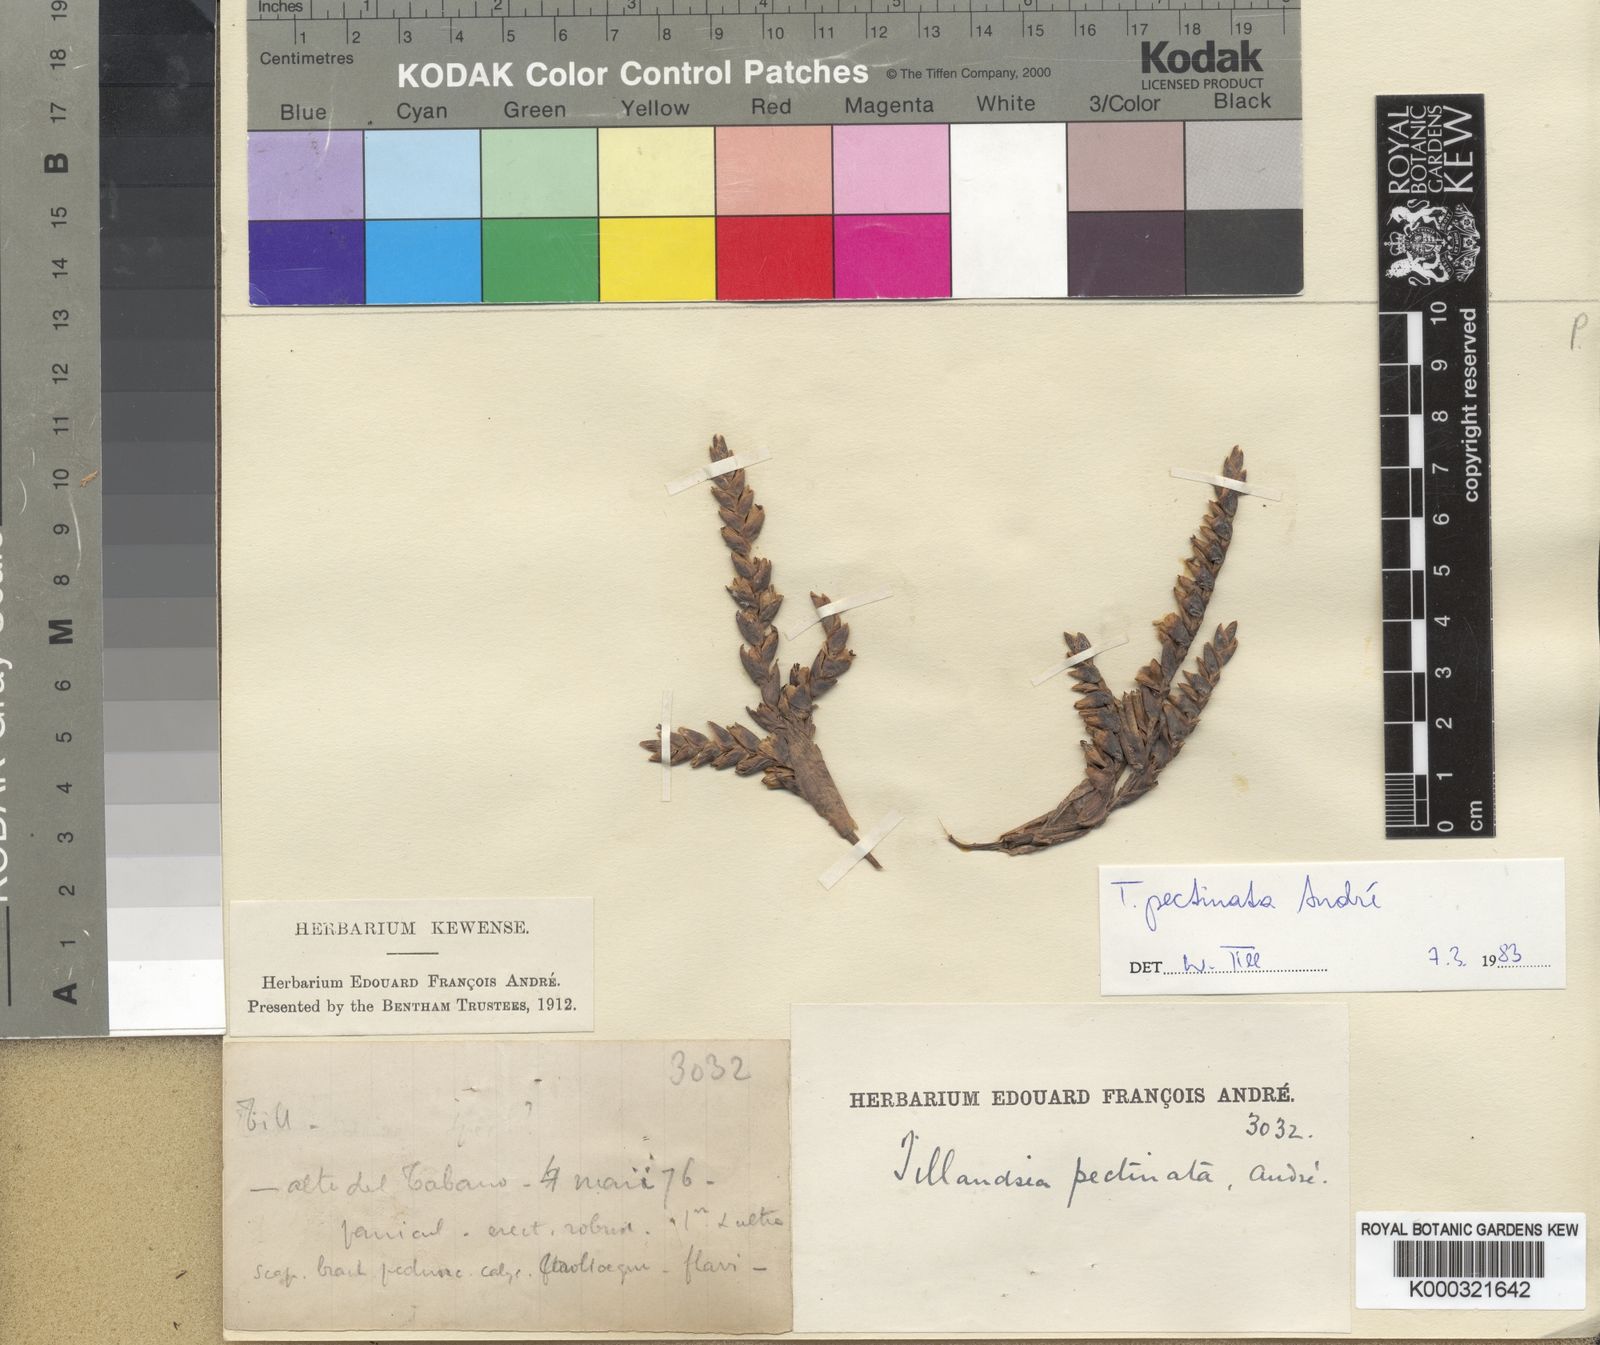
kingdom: Plantae
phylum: Tracheophyta
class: Liliopsida
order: Poales
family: Bromeliaceae
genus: Tillandsia
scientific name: Tillandsia
